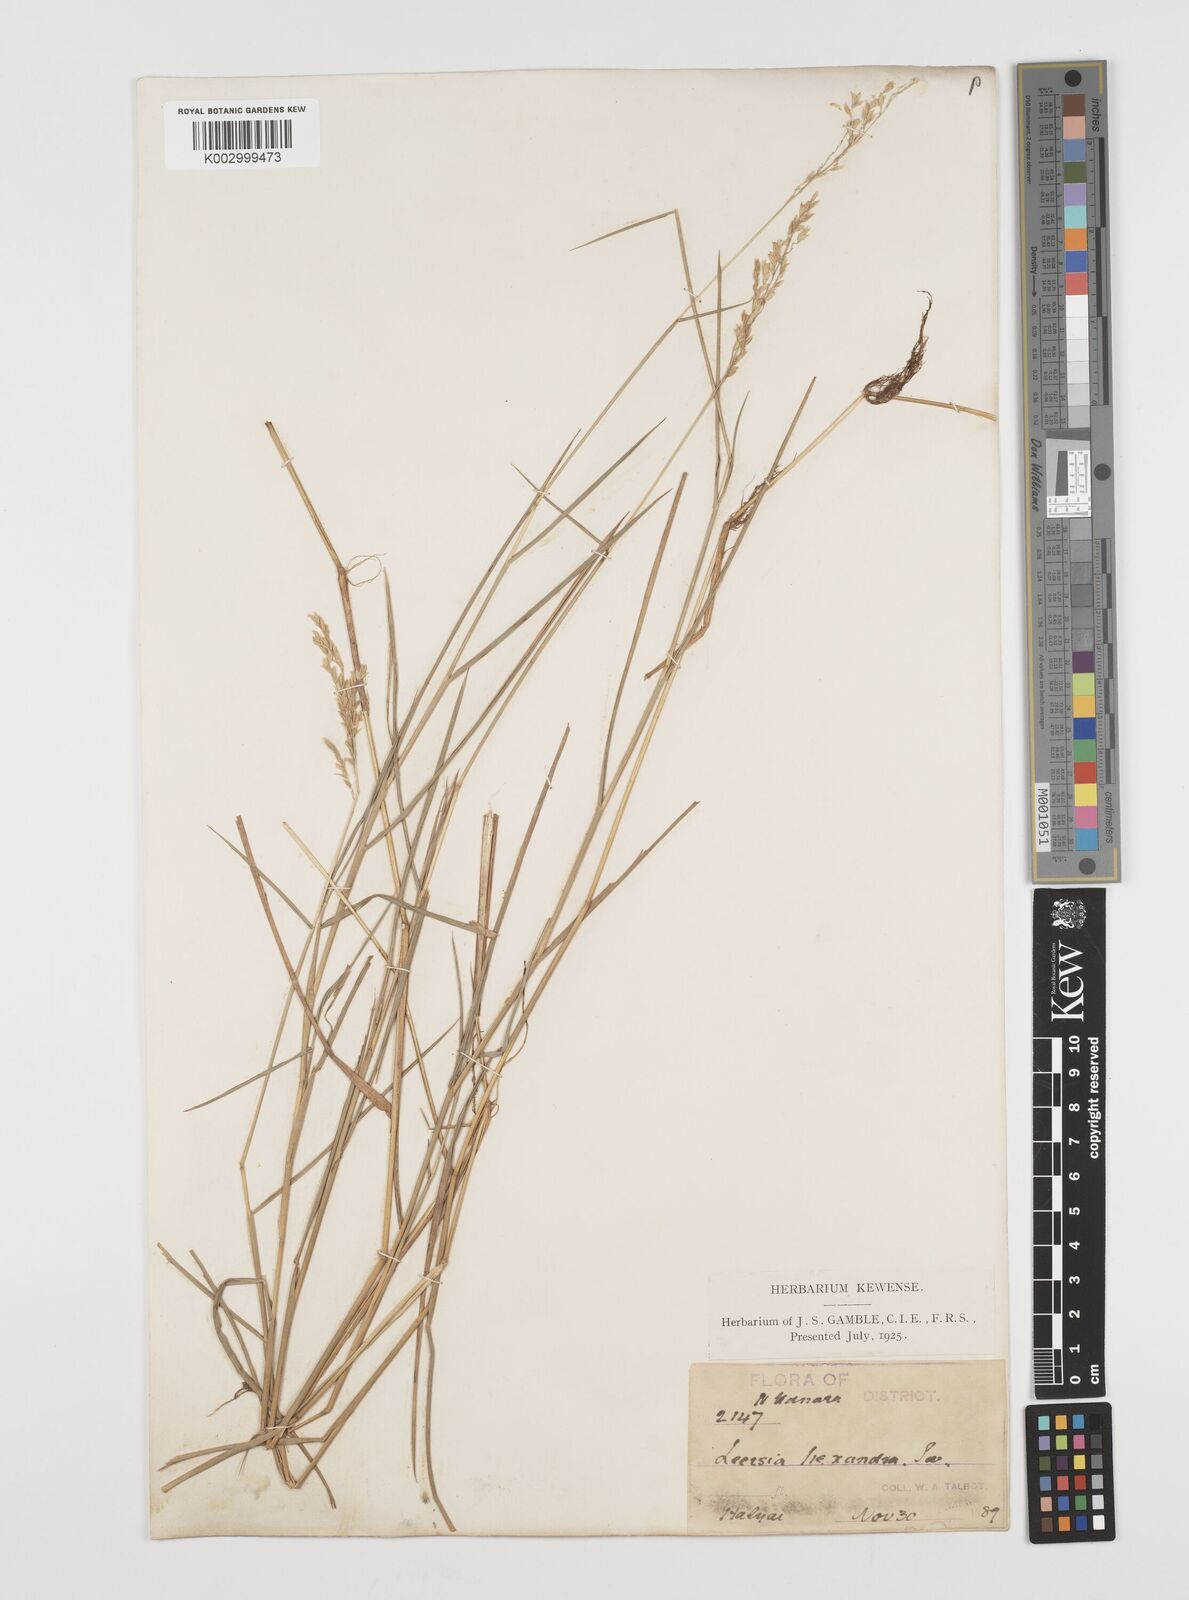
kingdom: Plantae
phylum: Tracheophyta
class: Liliopsida
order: Poales
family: Poaceae
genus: Leersia
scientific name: Leersia hexandra
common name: Southern cut grass
